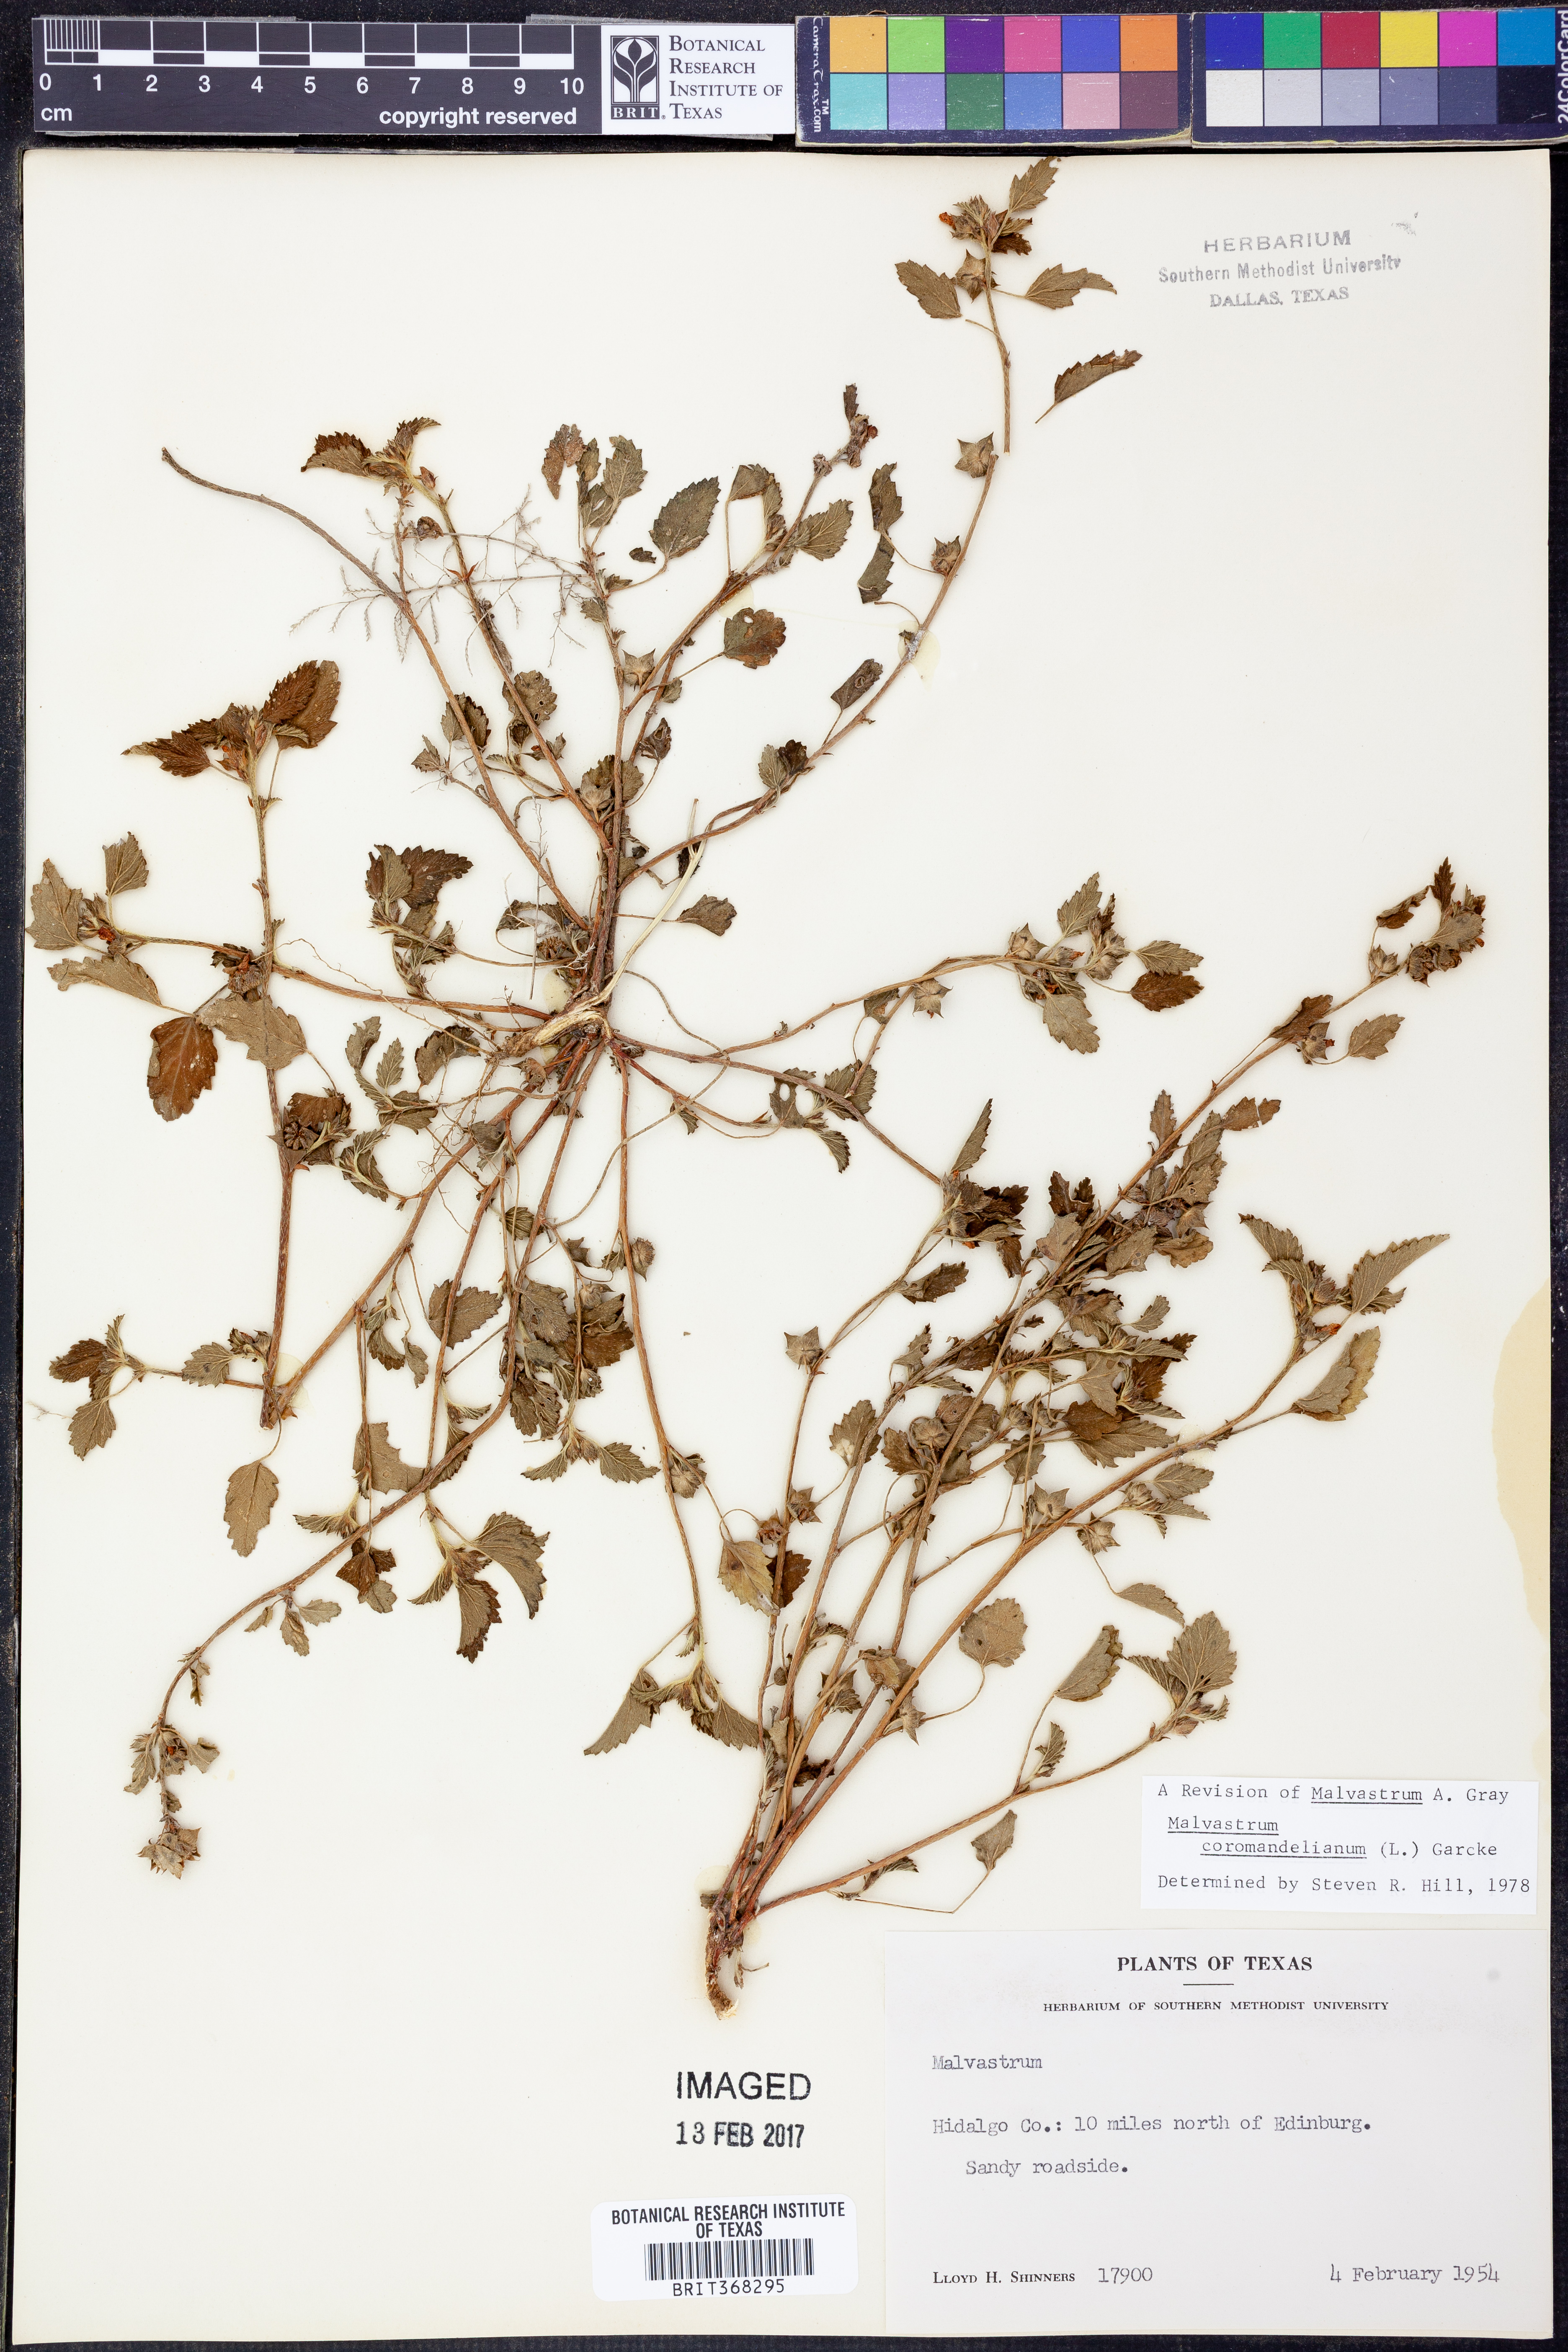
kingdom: Plantae
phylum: Tracheophyta
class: Magnoliopsida
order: Malvales
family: Malvaceae
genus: Malvastrum
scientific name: Malvastrum coromandelianum
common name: Threelobe false mallow
